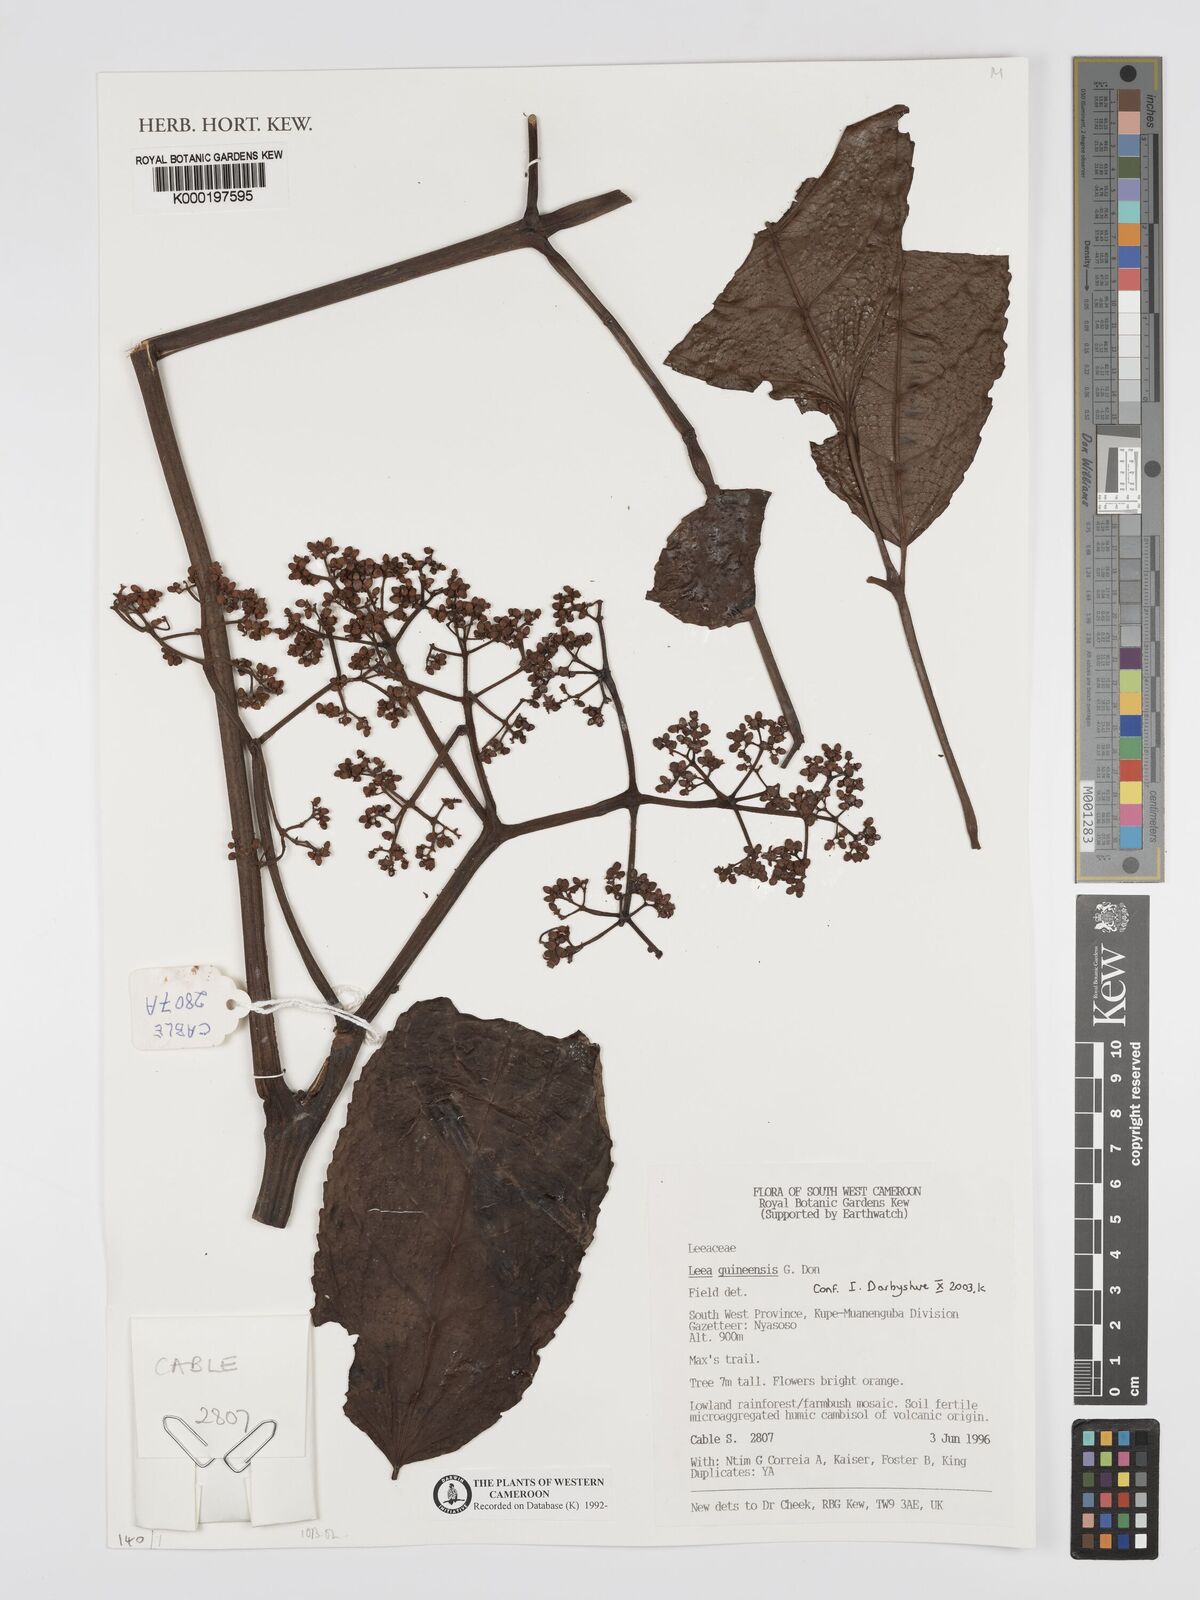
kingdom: Plantae
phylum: Tracheophyta
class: Magnoliopsida
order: Vitales
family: Vitaceae
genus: Leea
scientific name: Leea guineensis
